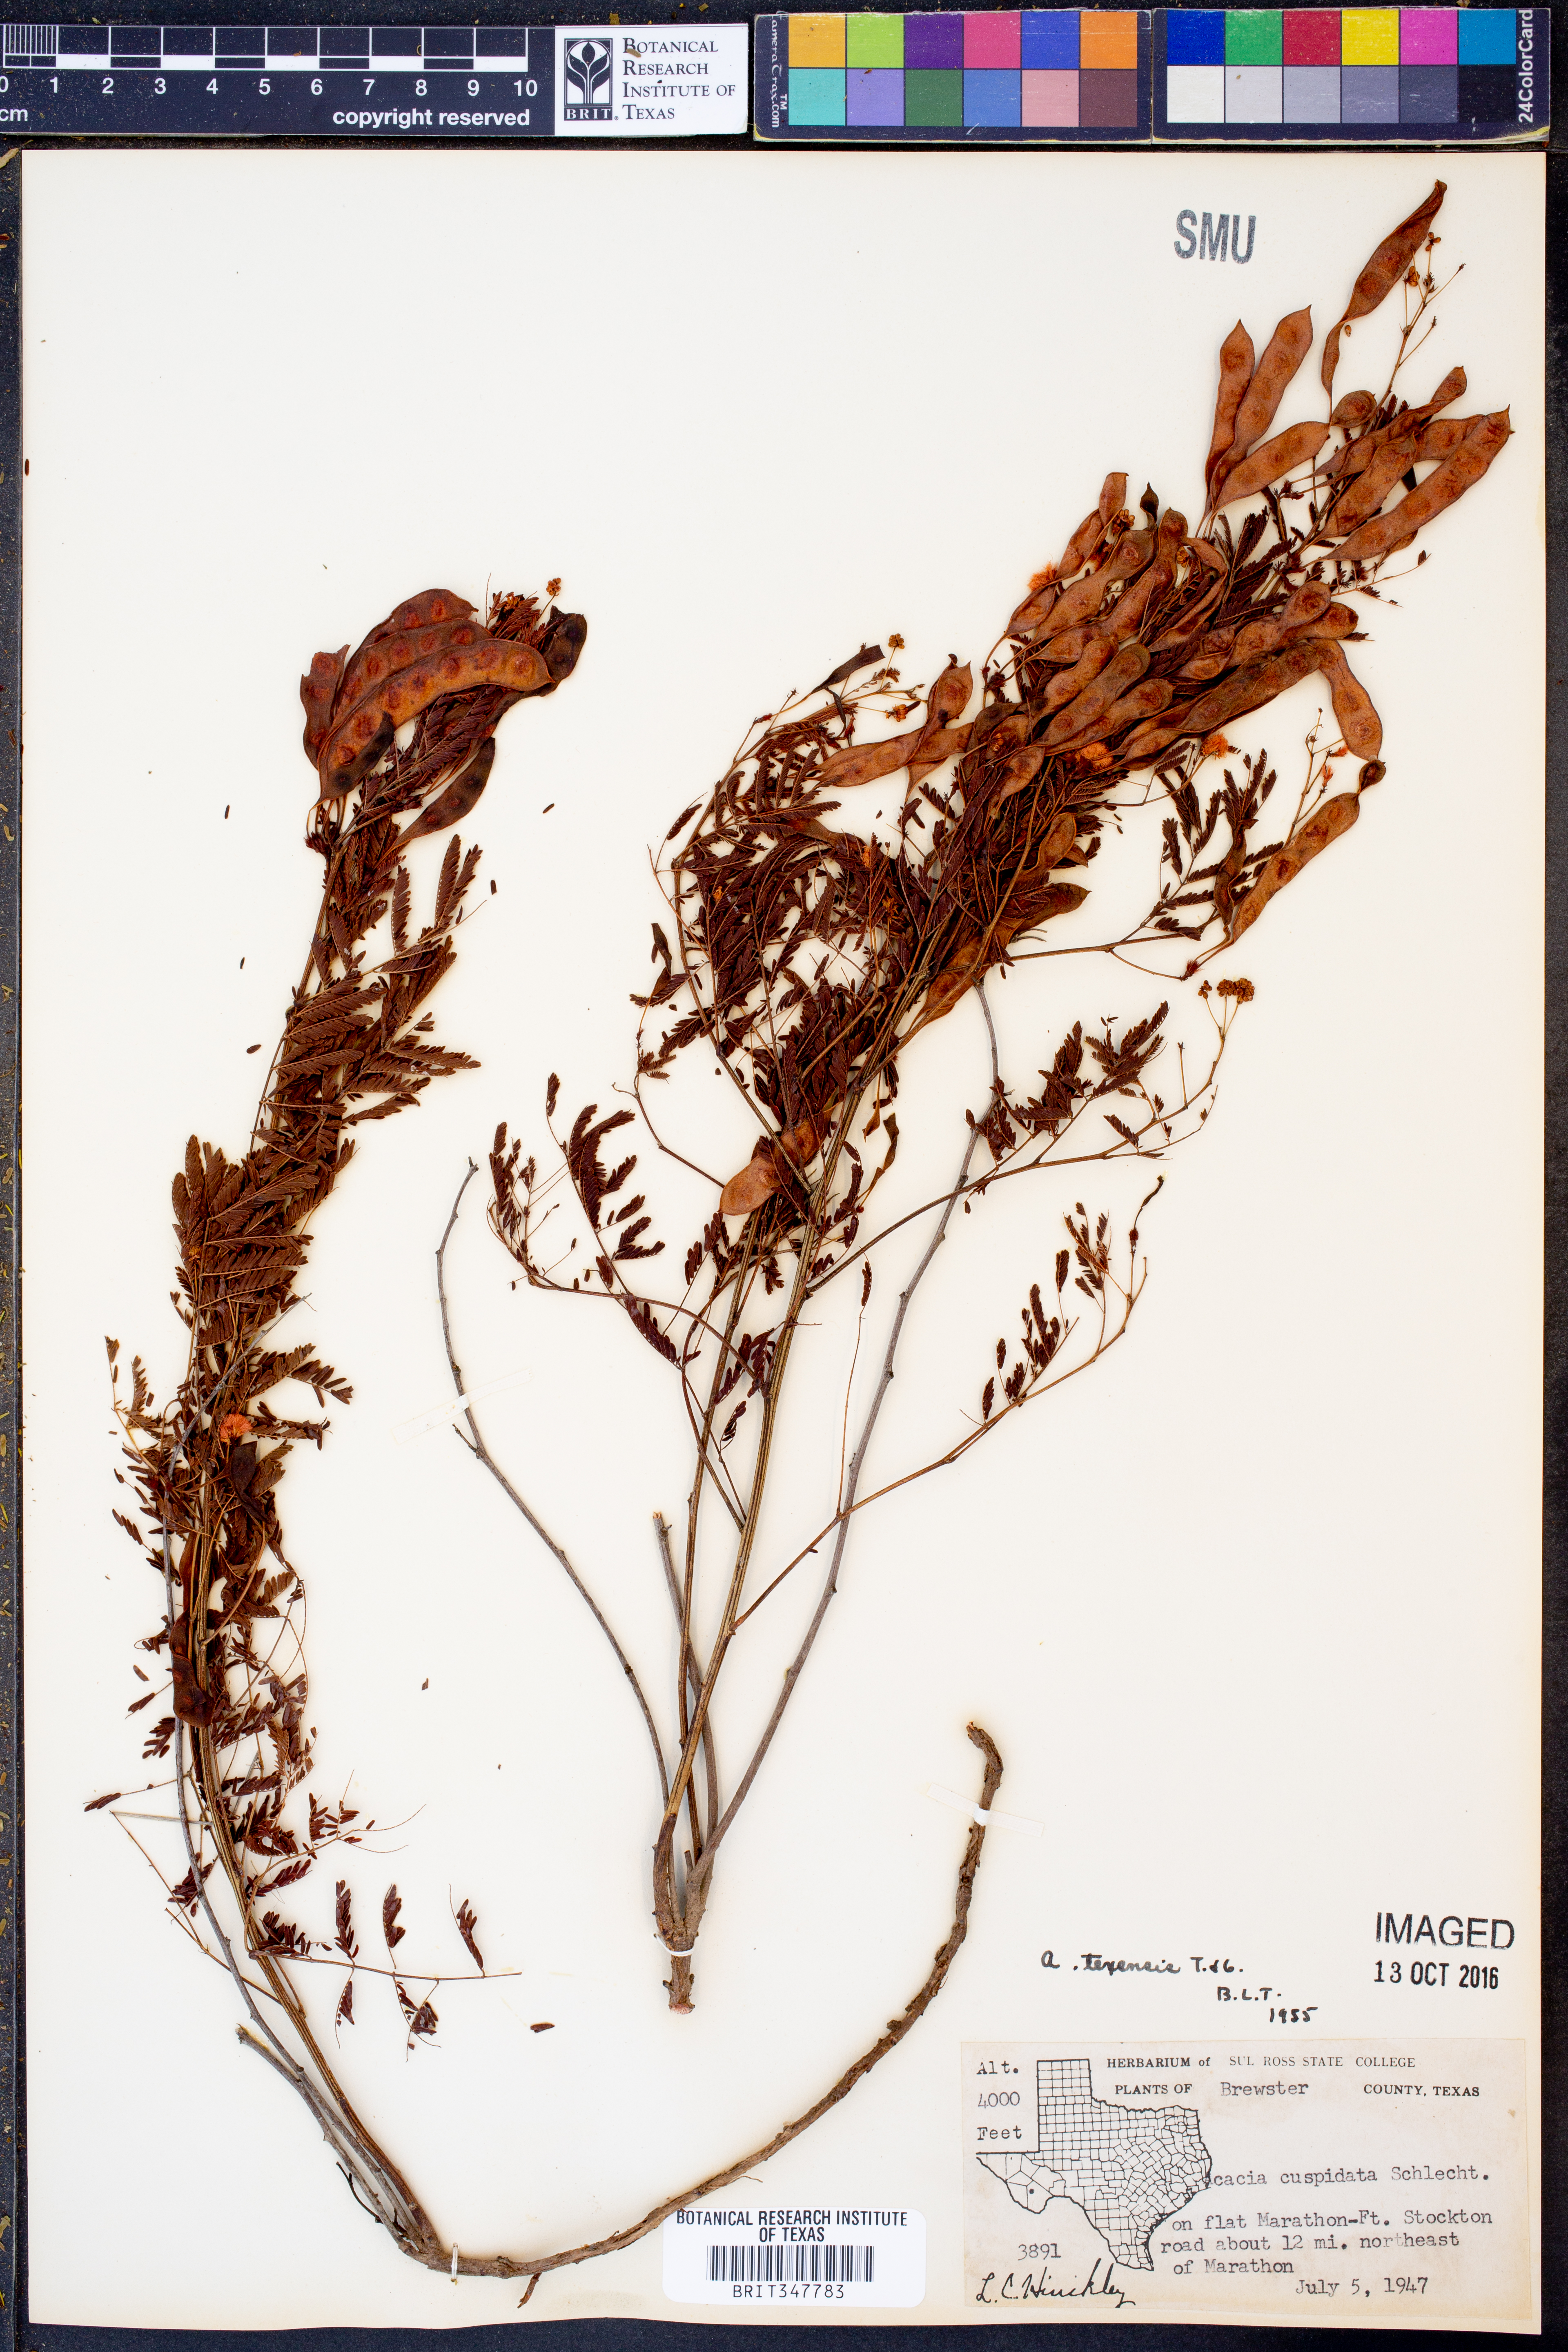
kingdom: Plantae
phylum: Tracheophyta
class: Magnoliopsida
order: Fabales
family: Fabaceae
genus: Acaciella
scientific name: Acaciella angustissima
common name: Prairie acacia
